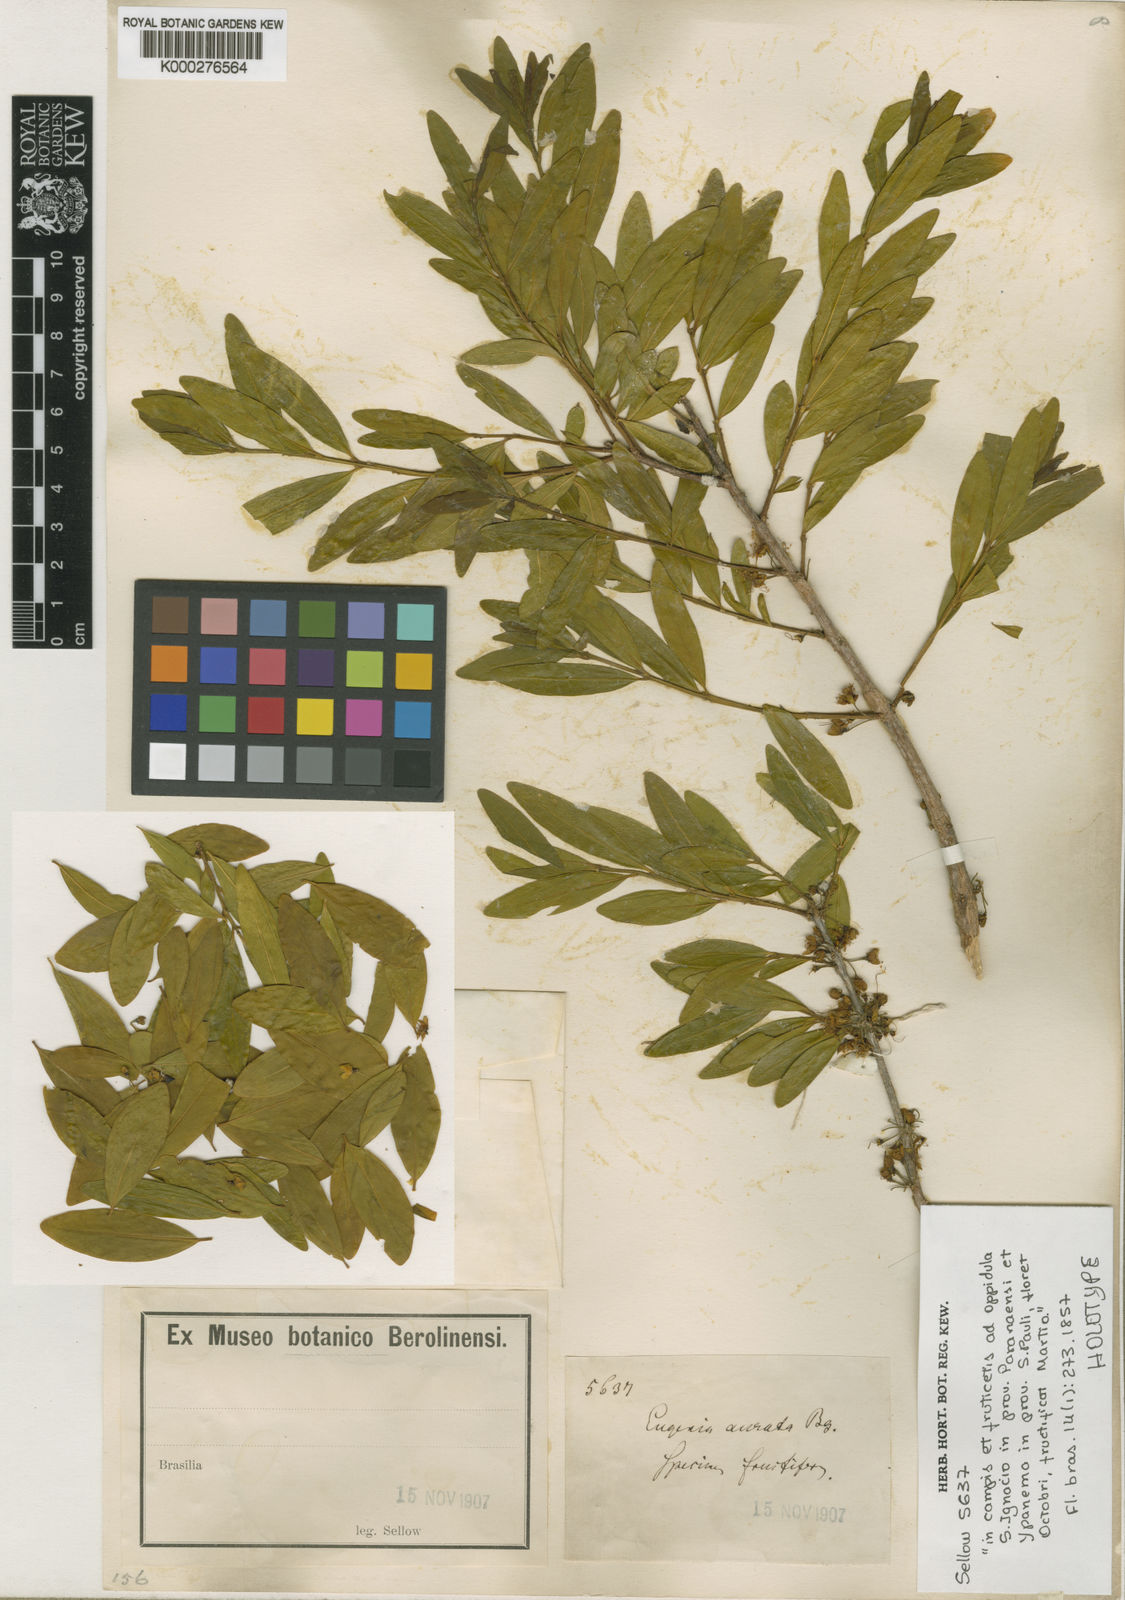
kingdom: Plantae
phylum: Tracheophyta
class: Magnoliopsida
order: Myrtales
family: Myrtaceae
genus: Eugenia
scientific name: Eugenia aurata
